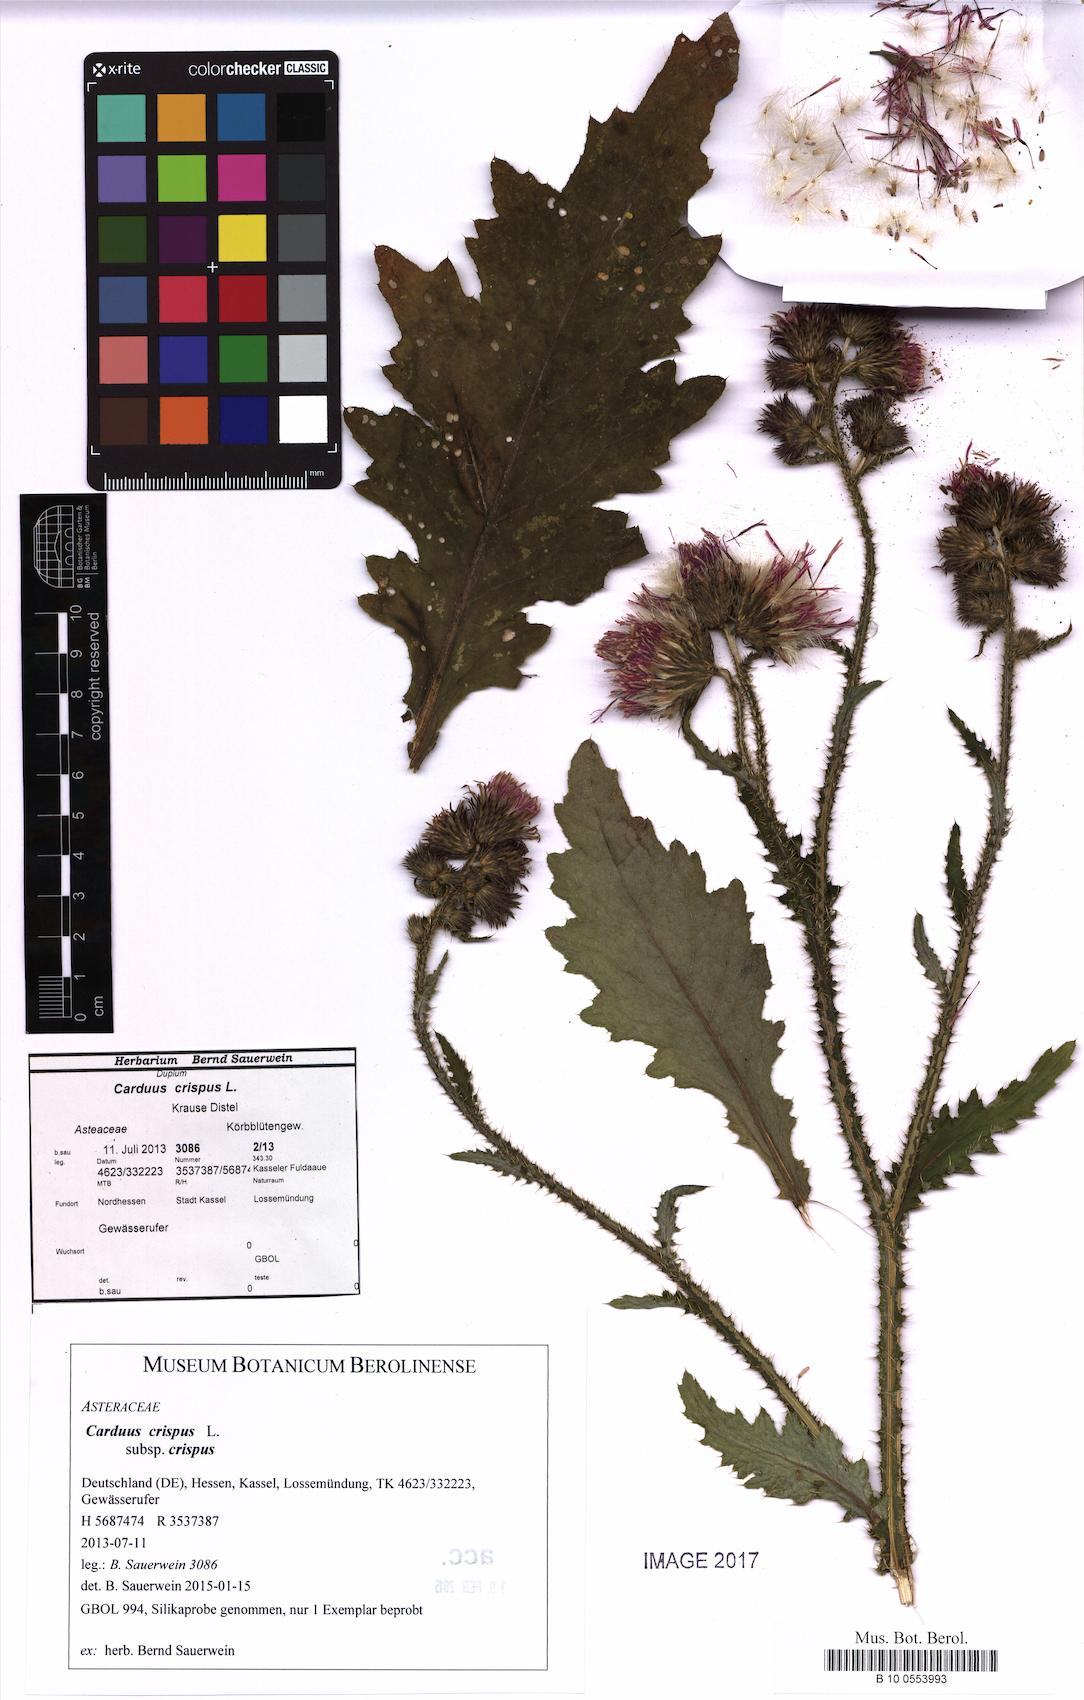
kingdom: Plantae
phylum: Tracheophyta
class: Magnoliopsida
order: Asterales
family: Asteraceae
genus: Carduus
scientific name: Carduus crispus
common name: Welted thistle
